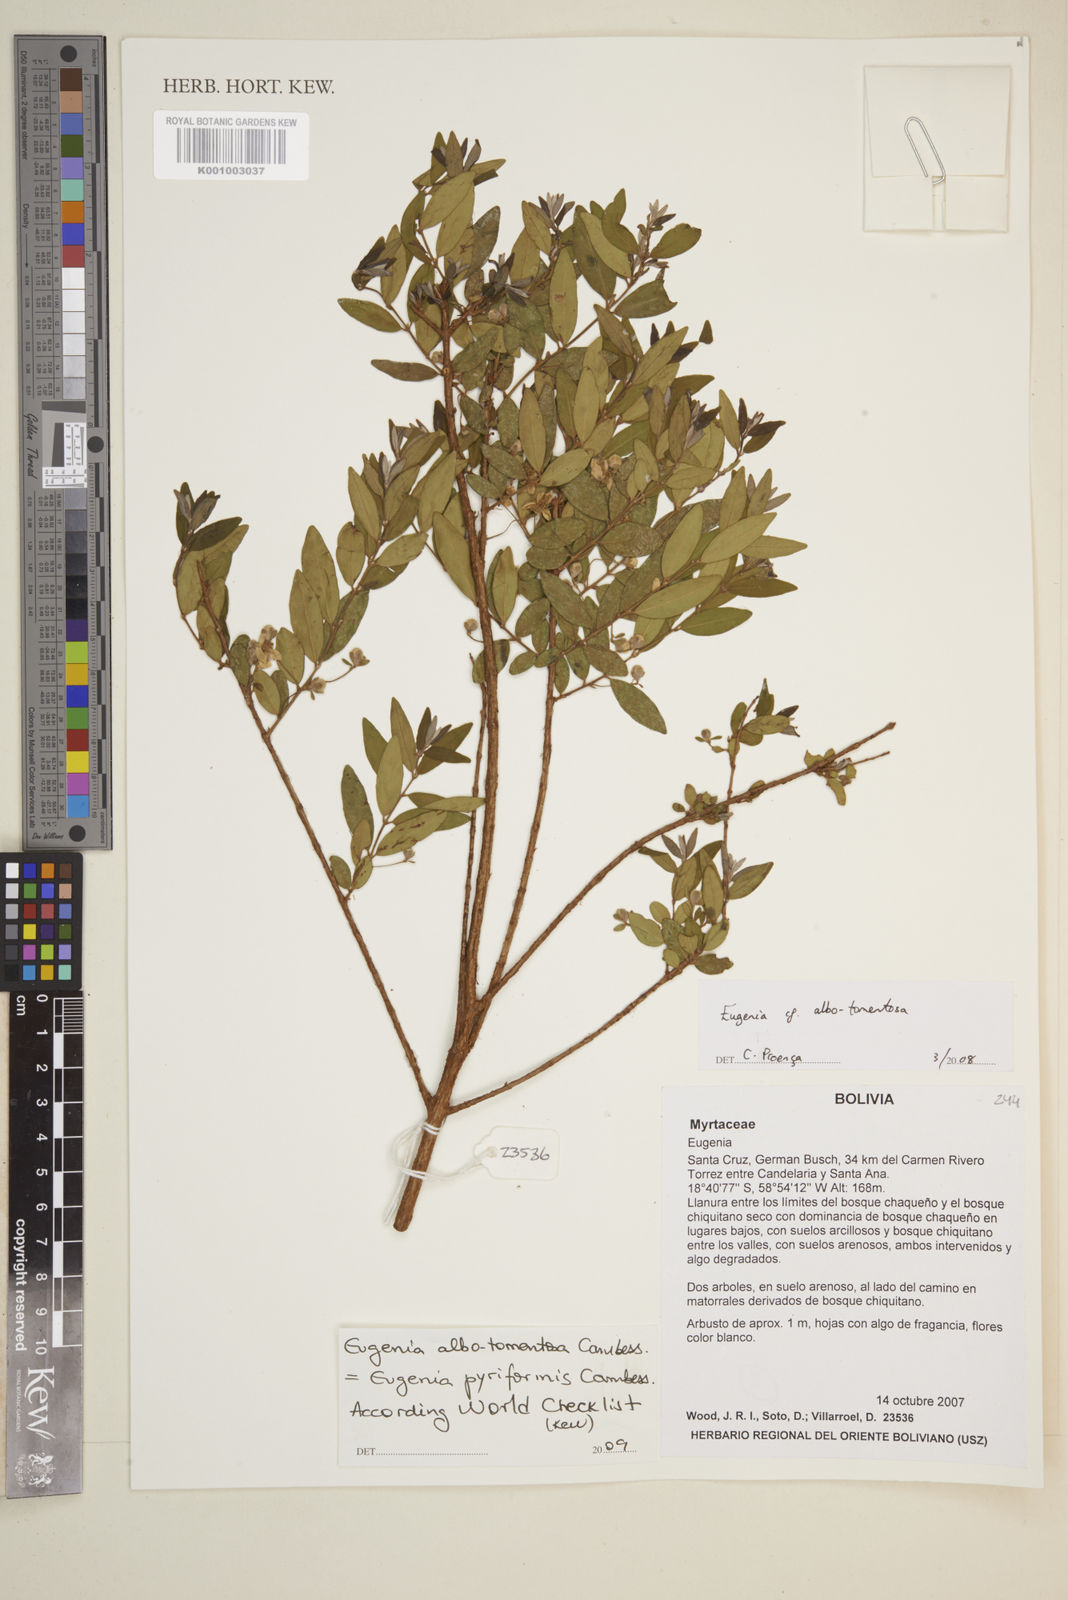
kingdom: Plantae
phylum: Tracheophyta
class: Magnoliopsida
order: Myrtales
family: Myrtaceae
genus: Eugenia
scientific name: Eugenia pyriformis
